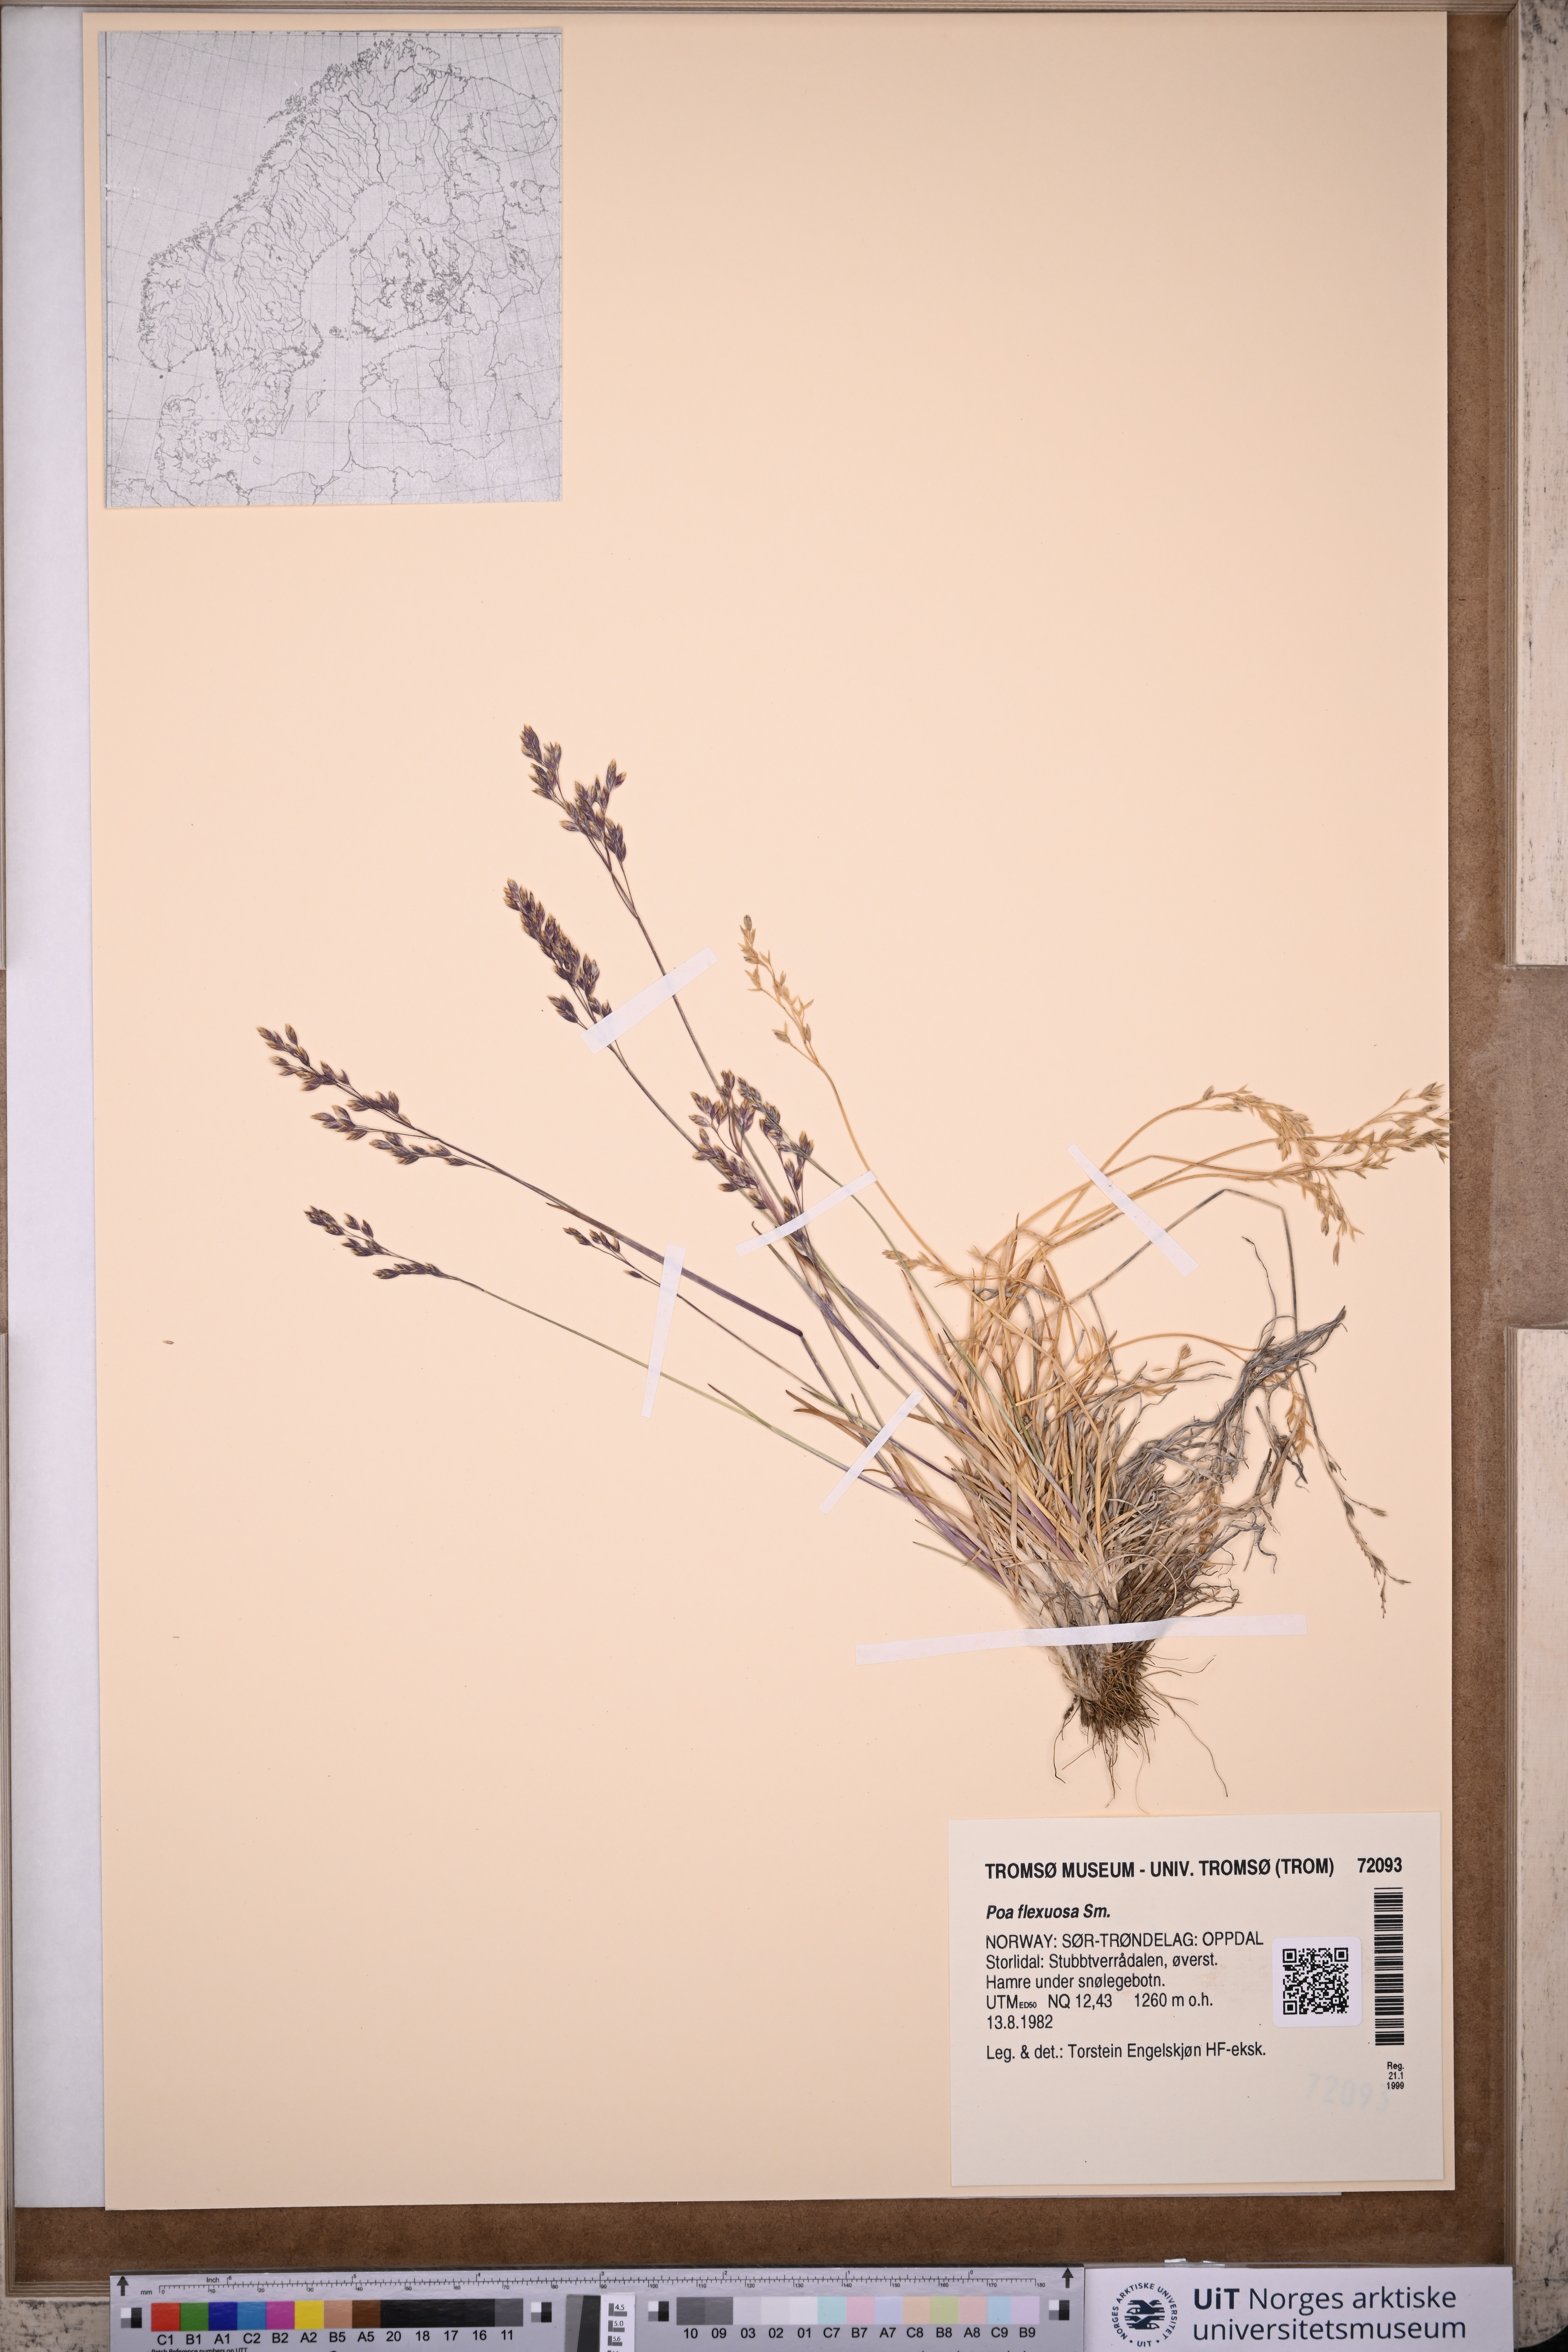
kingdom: Plantae
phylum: Tracheophyta
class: Liliopsida
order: Poales
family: Poaceae
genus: Poa
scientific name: Poa flexuosa
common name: Wavy meadow-grass
